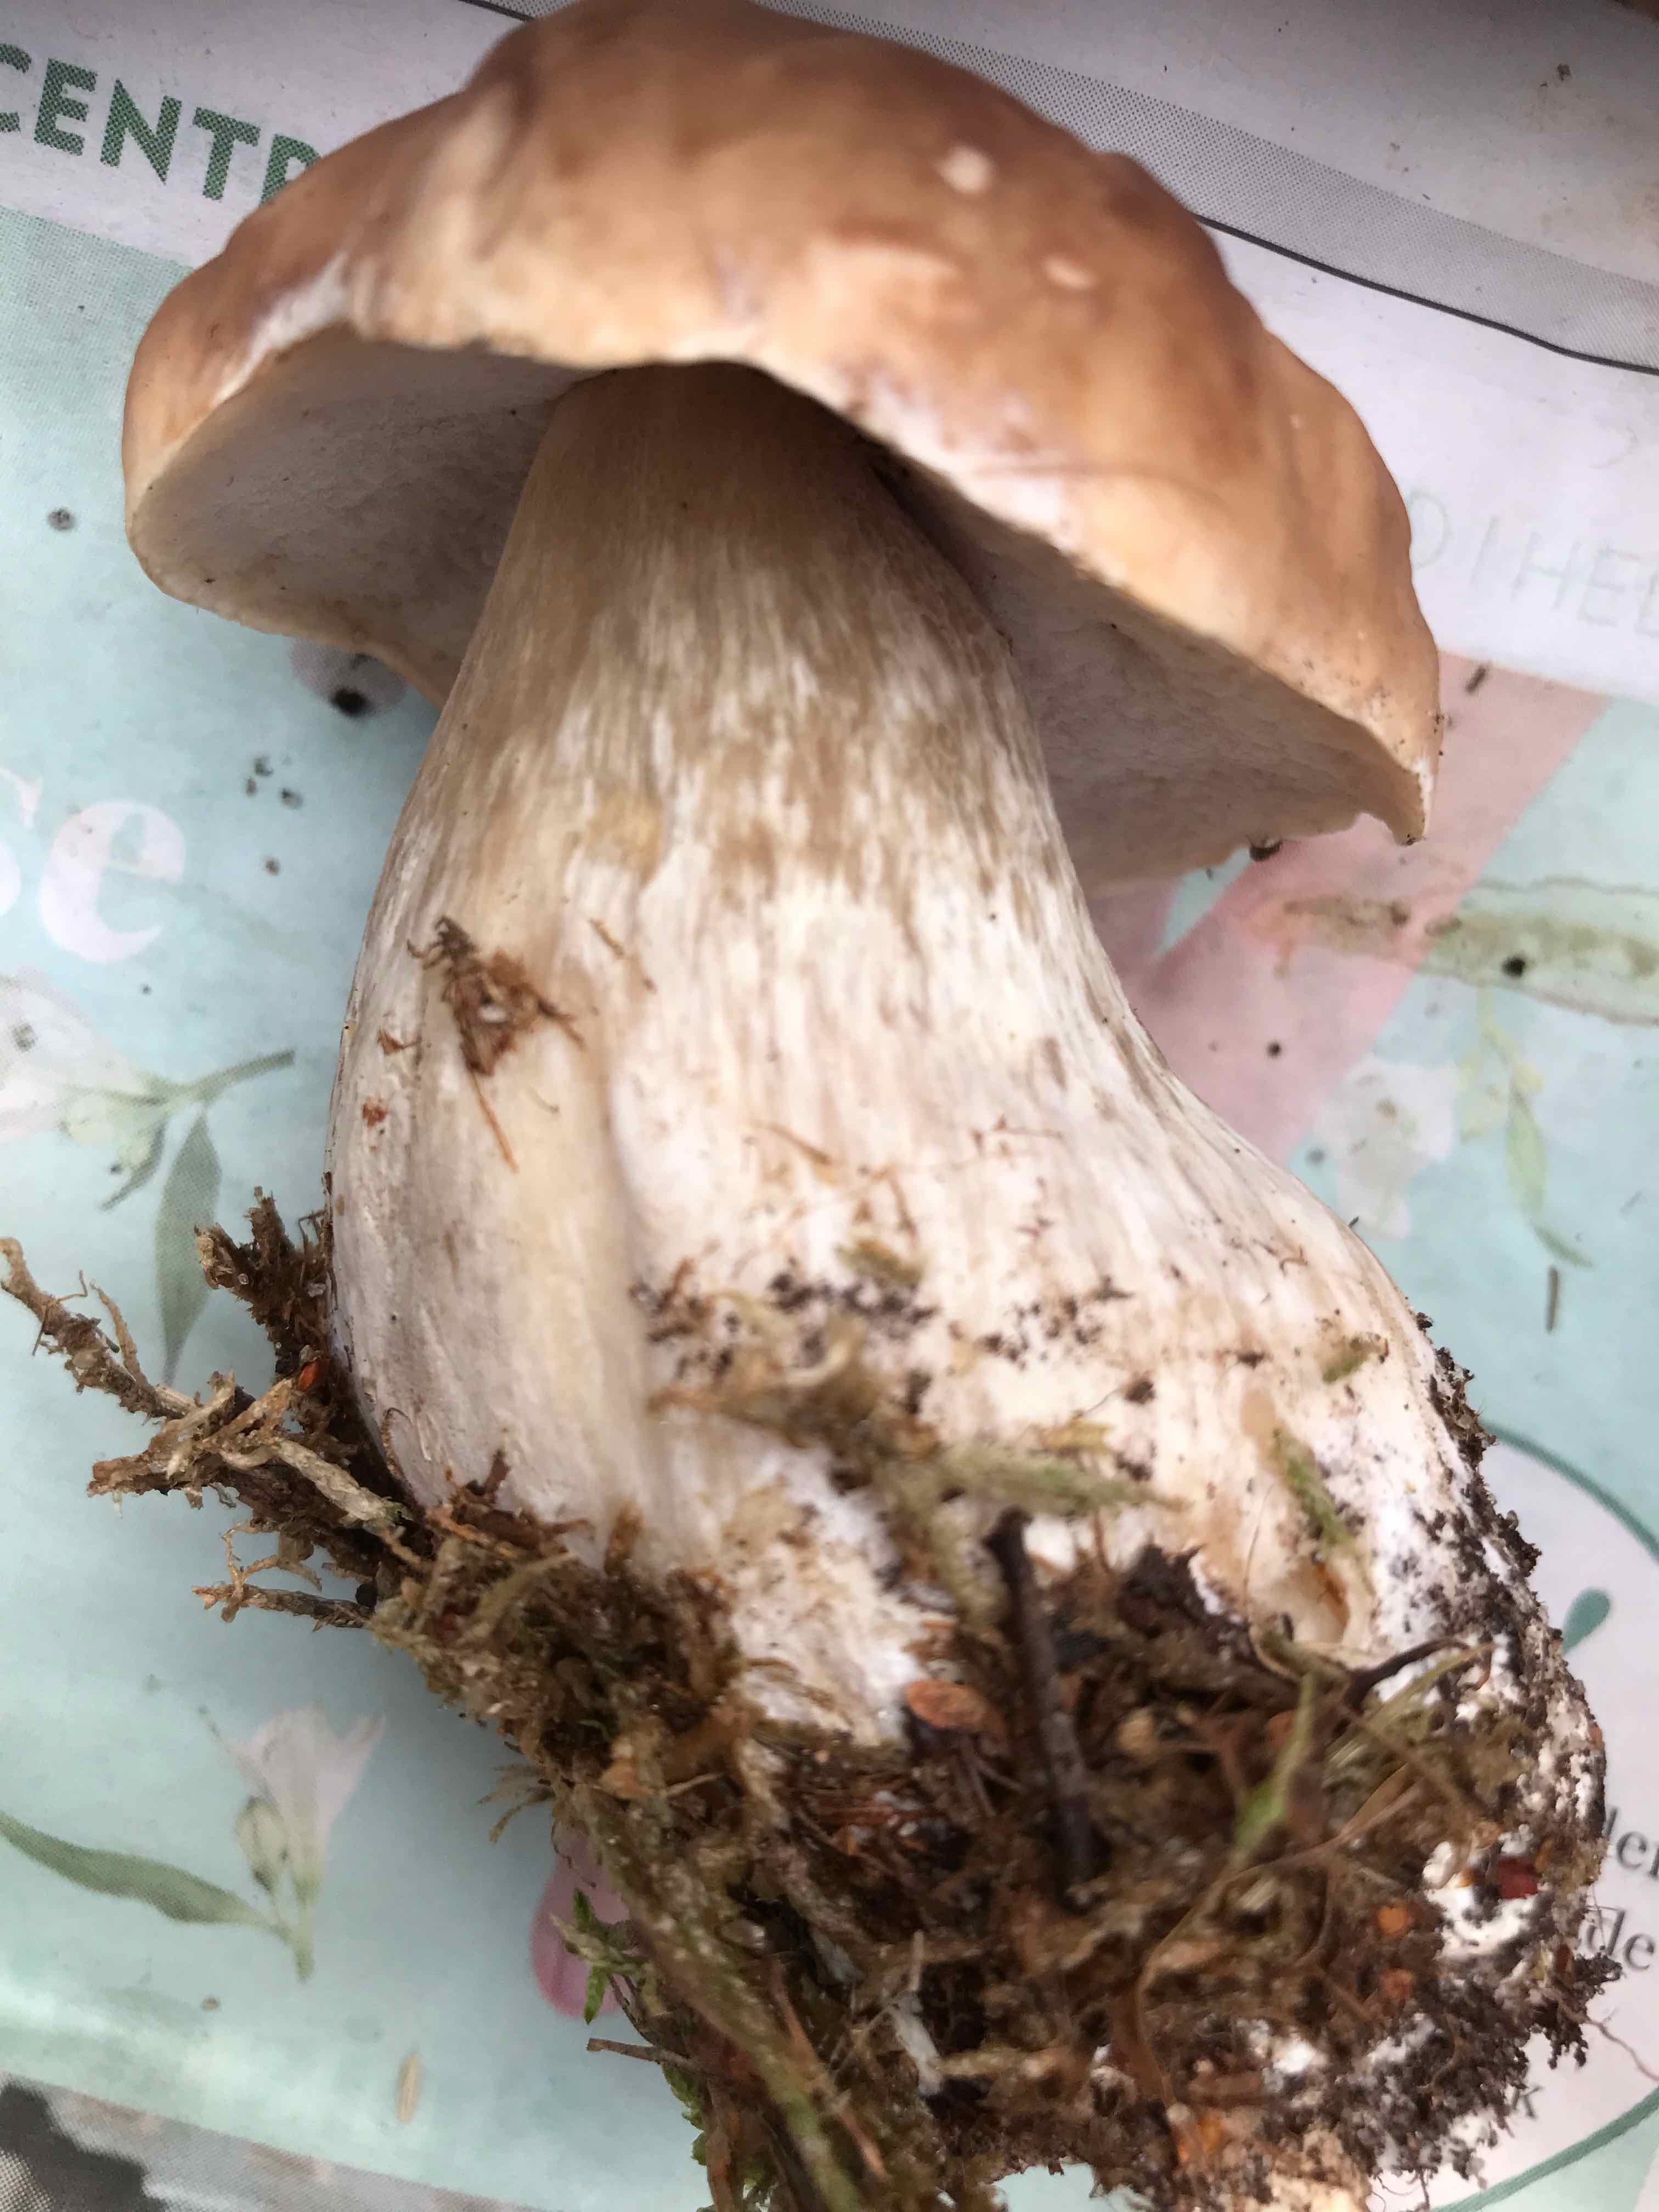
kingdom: Fungi
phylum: Basidiomycota
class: Agaricomycetes
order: Boletales
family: Boletaceae
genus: Boletus
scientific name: Boletus edulis
